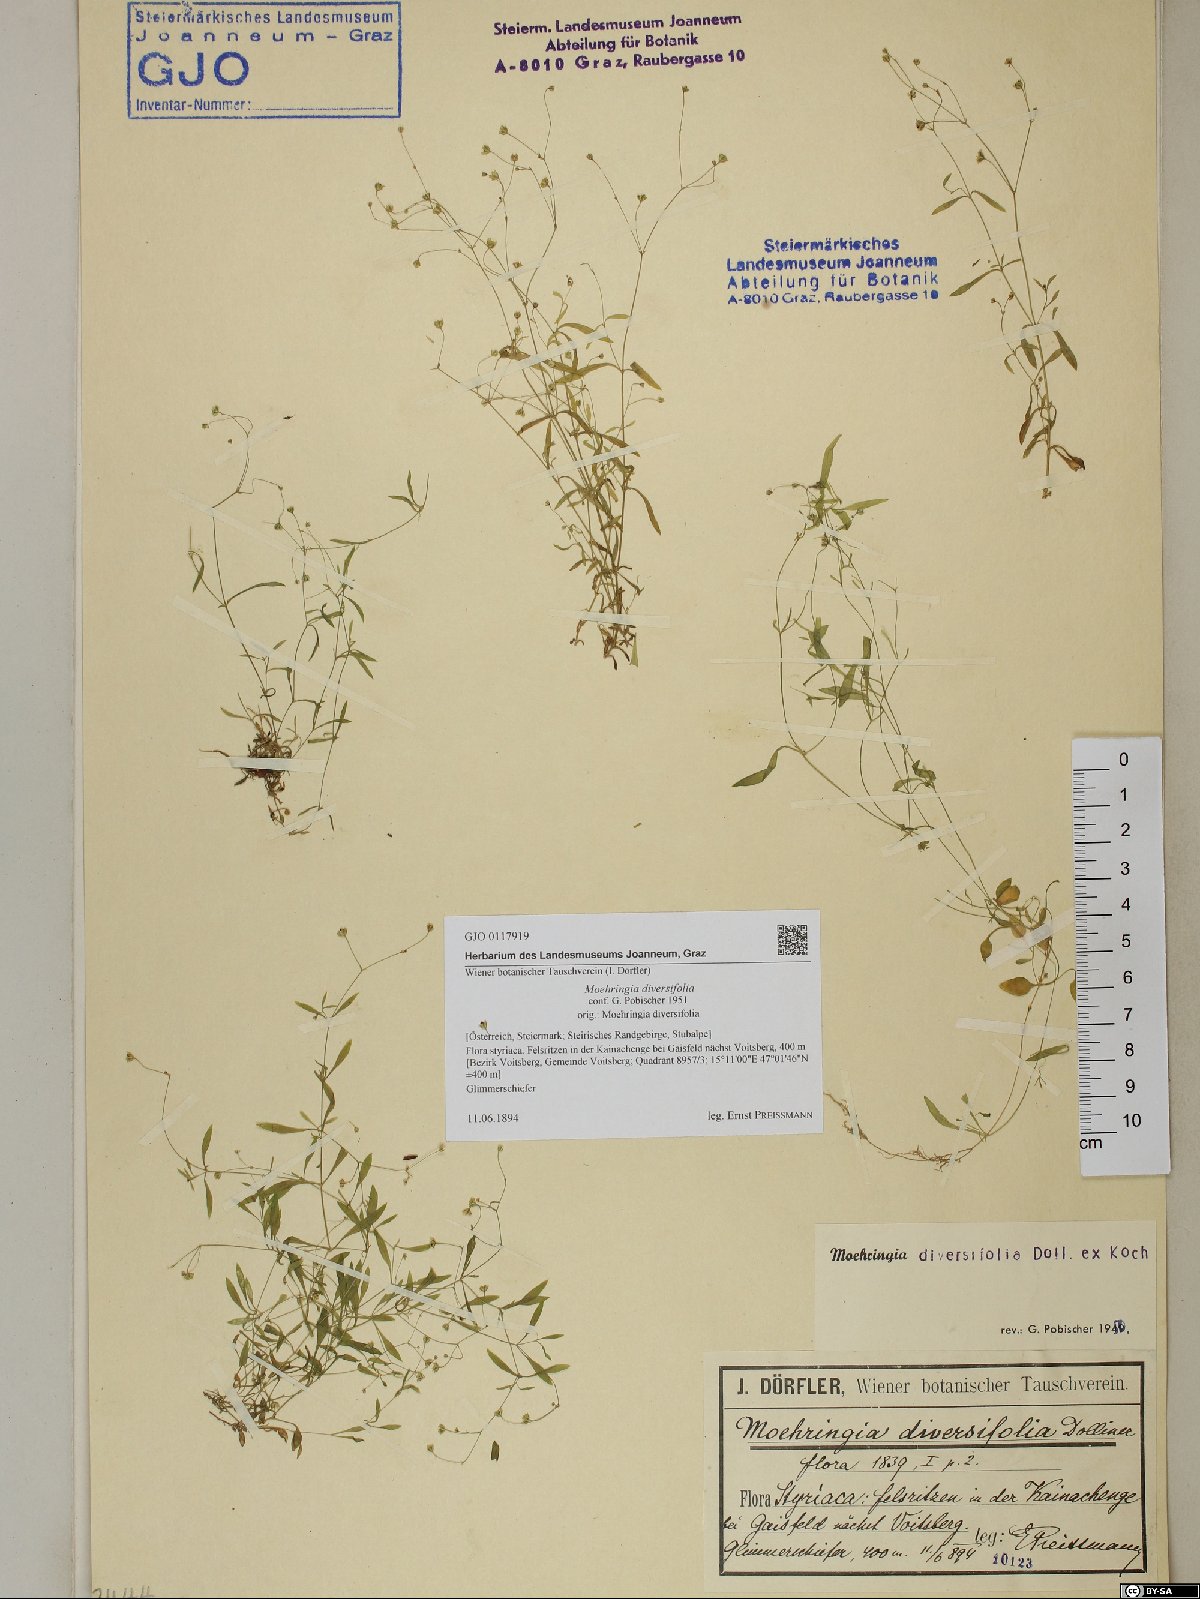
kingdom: Plantae
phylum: Tracheophyta
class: Magnoliopsida
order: Caryophyllales
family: Caryophyllaceae
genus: Moehringia
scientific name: Moehringia diversifolia
